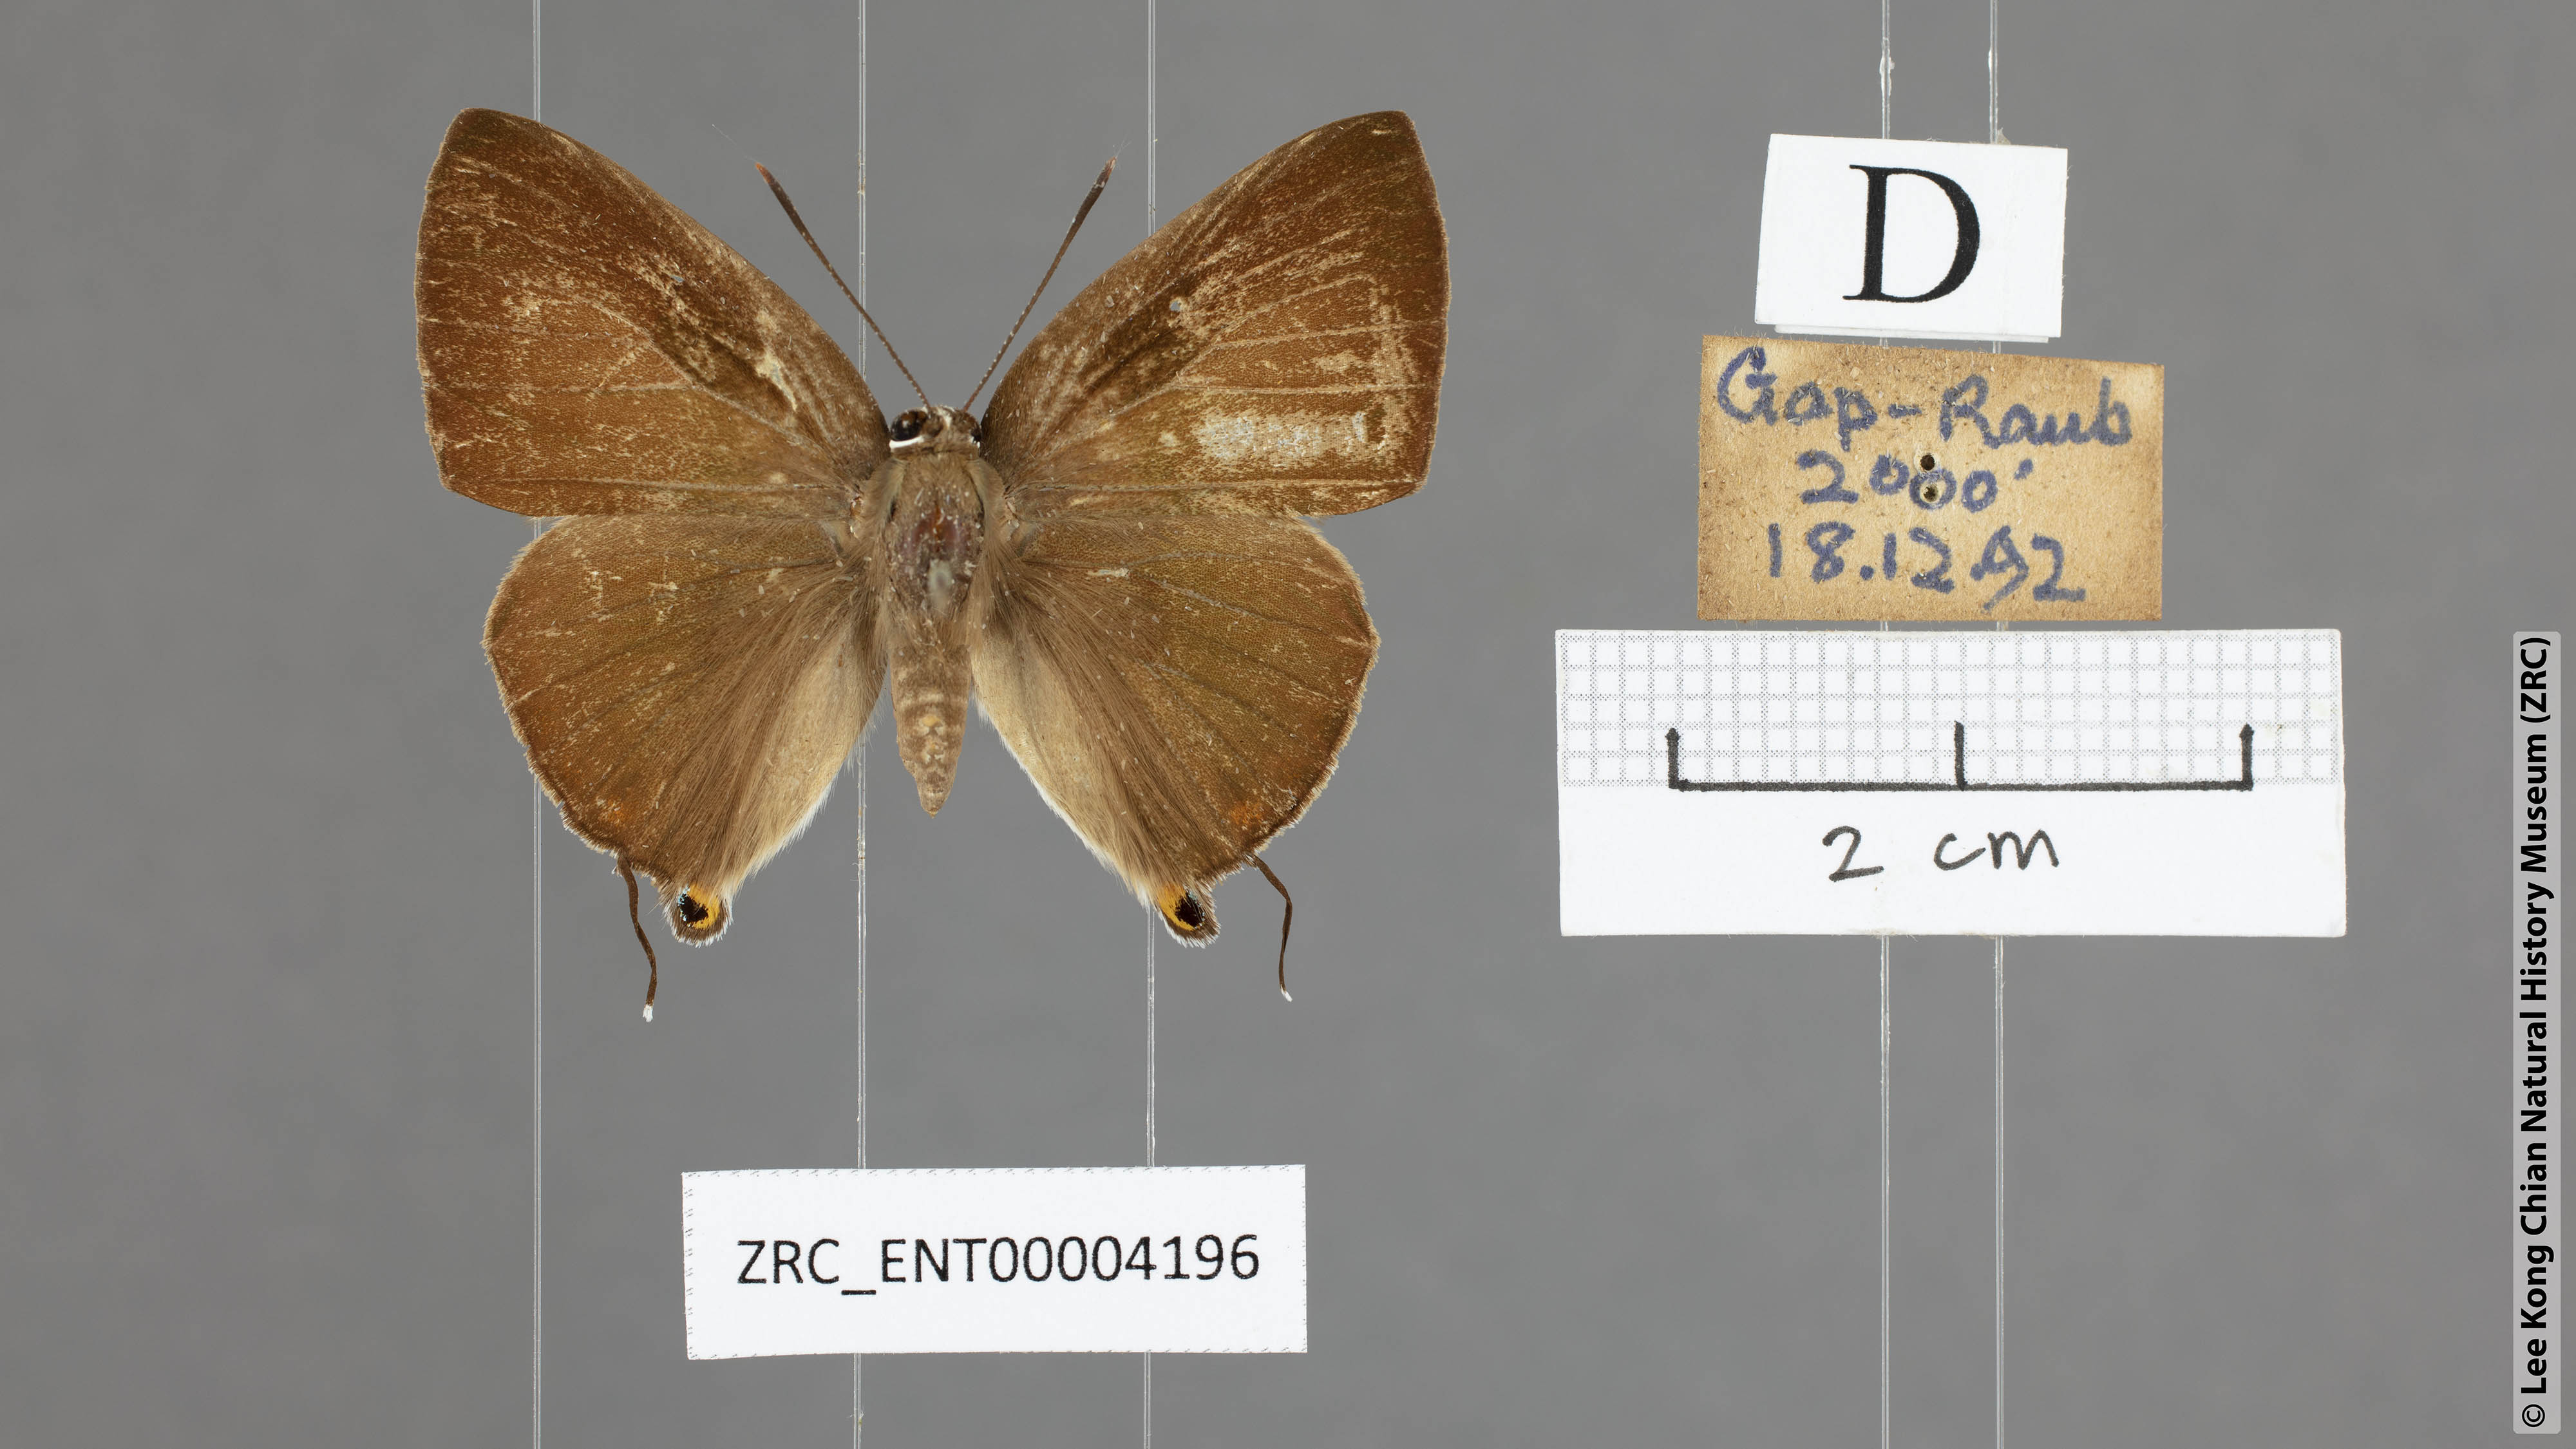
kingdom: Animalia
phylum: Arthropoda
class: Insecta
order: Lepidoptera
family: Lycaenidae
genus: Deudorix
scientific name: Deudorix epijarbas
